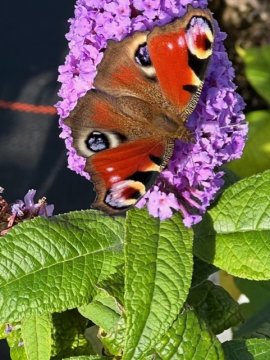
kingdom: Animalia
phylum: Arthropoda
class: Insecta
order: Lepidoptera
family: Nymphalidae
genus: Aglais
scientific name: Aglais io
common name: European Peacock
